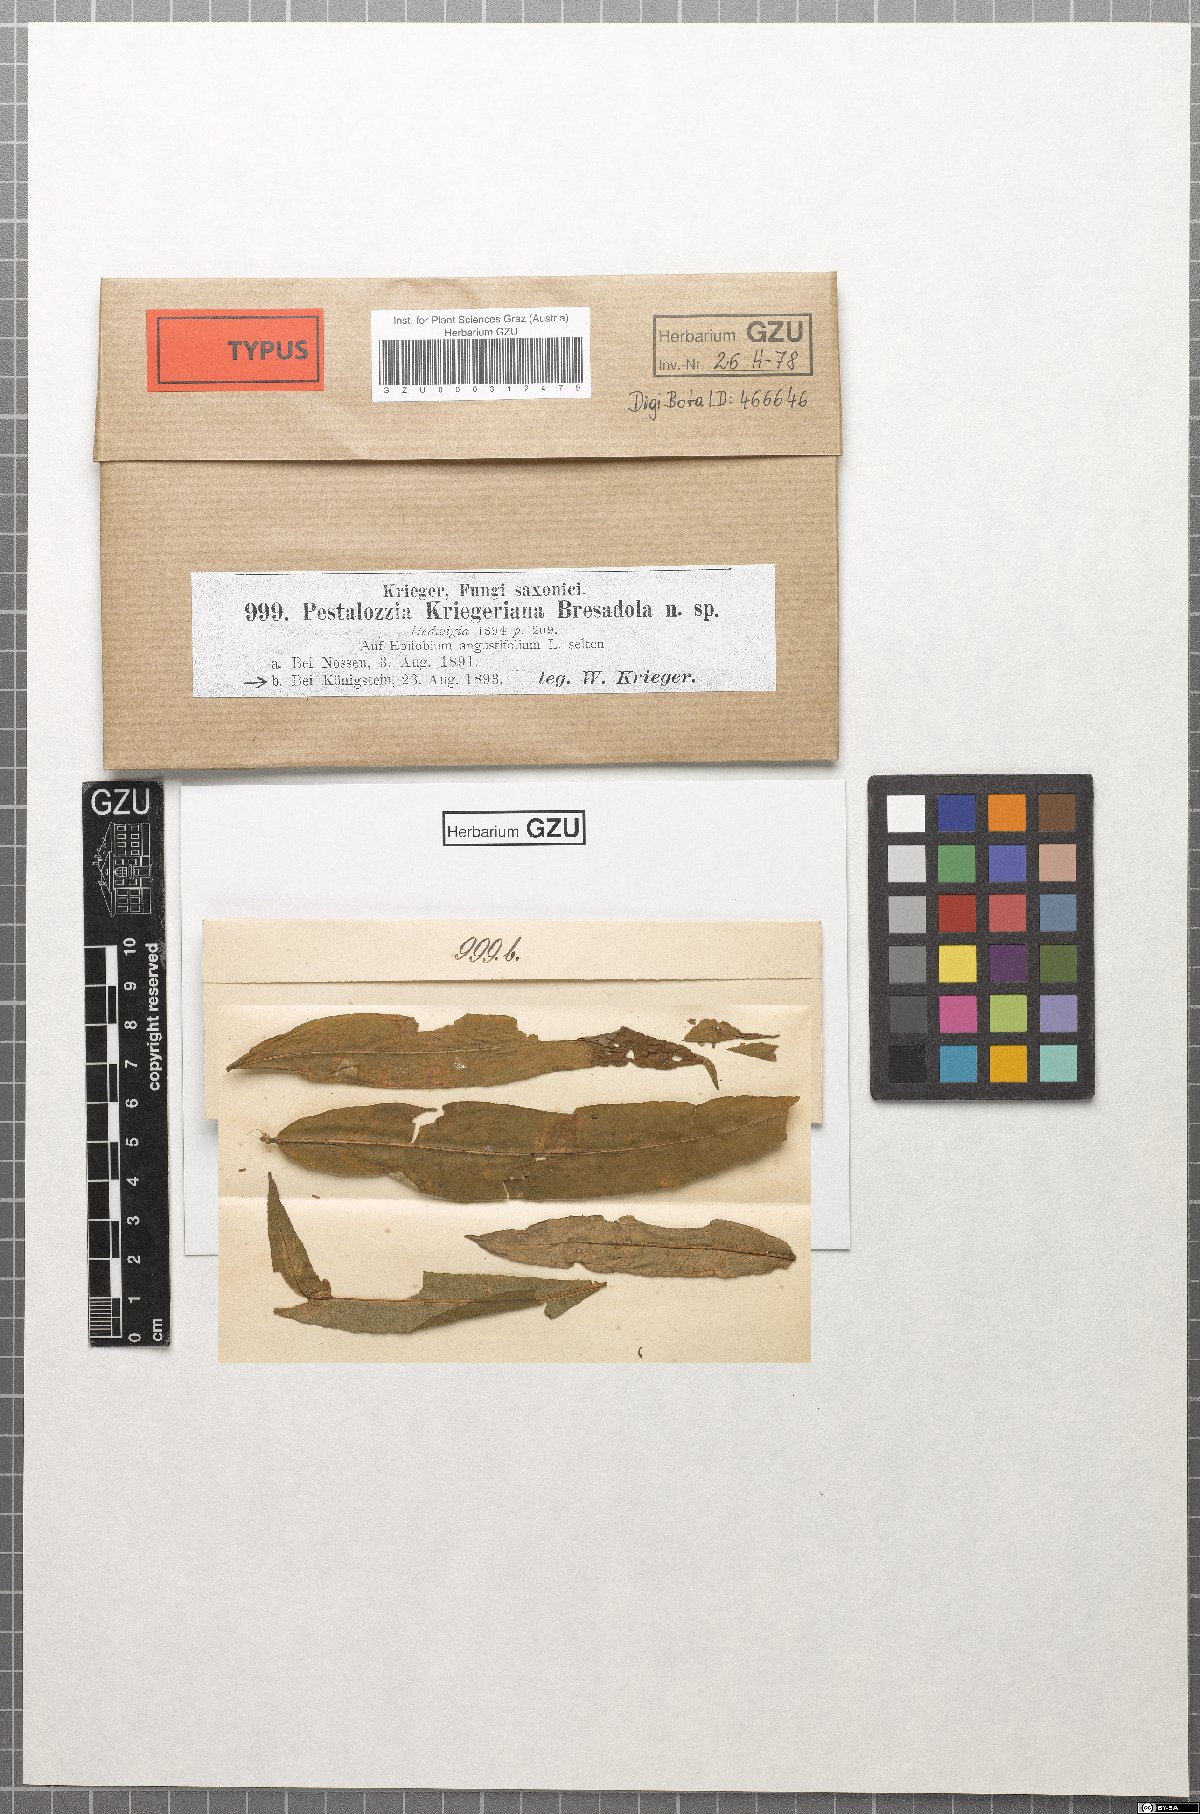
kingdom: Fungi
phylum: Ascomycota
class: Sordariomycetes
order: Amphisphaeriales
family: Sporocadaceae
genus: Allelochaeta
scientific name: Allelochaeta kriegeriana
